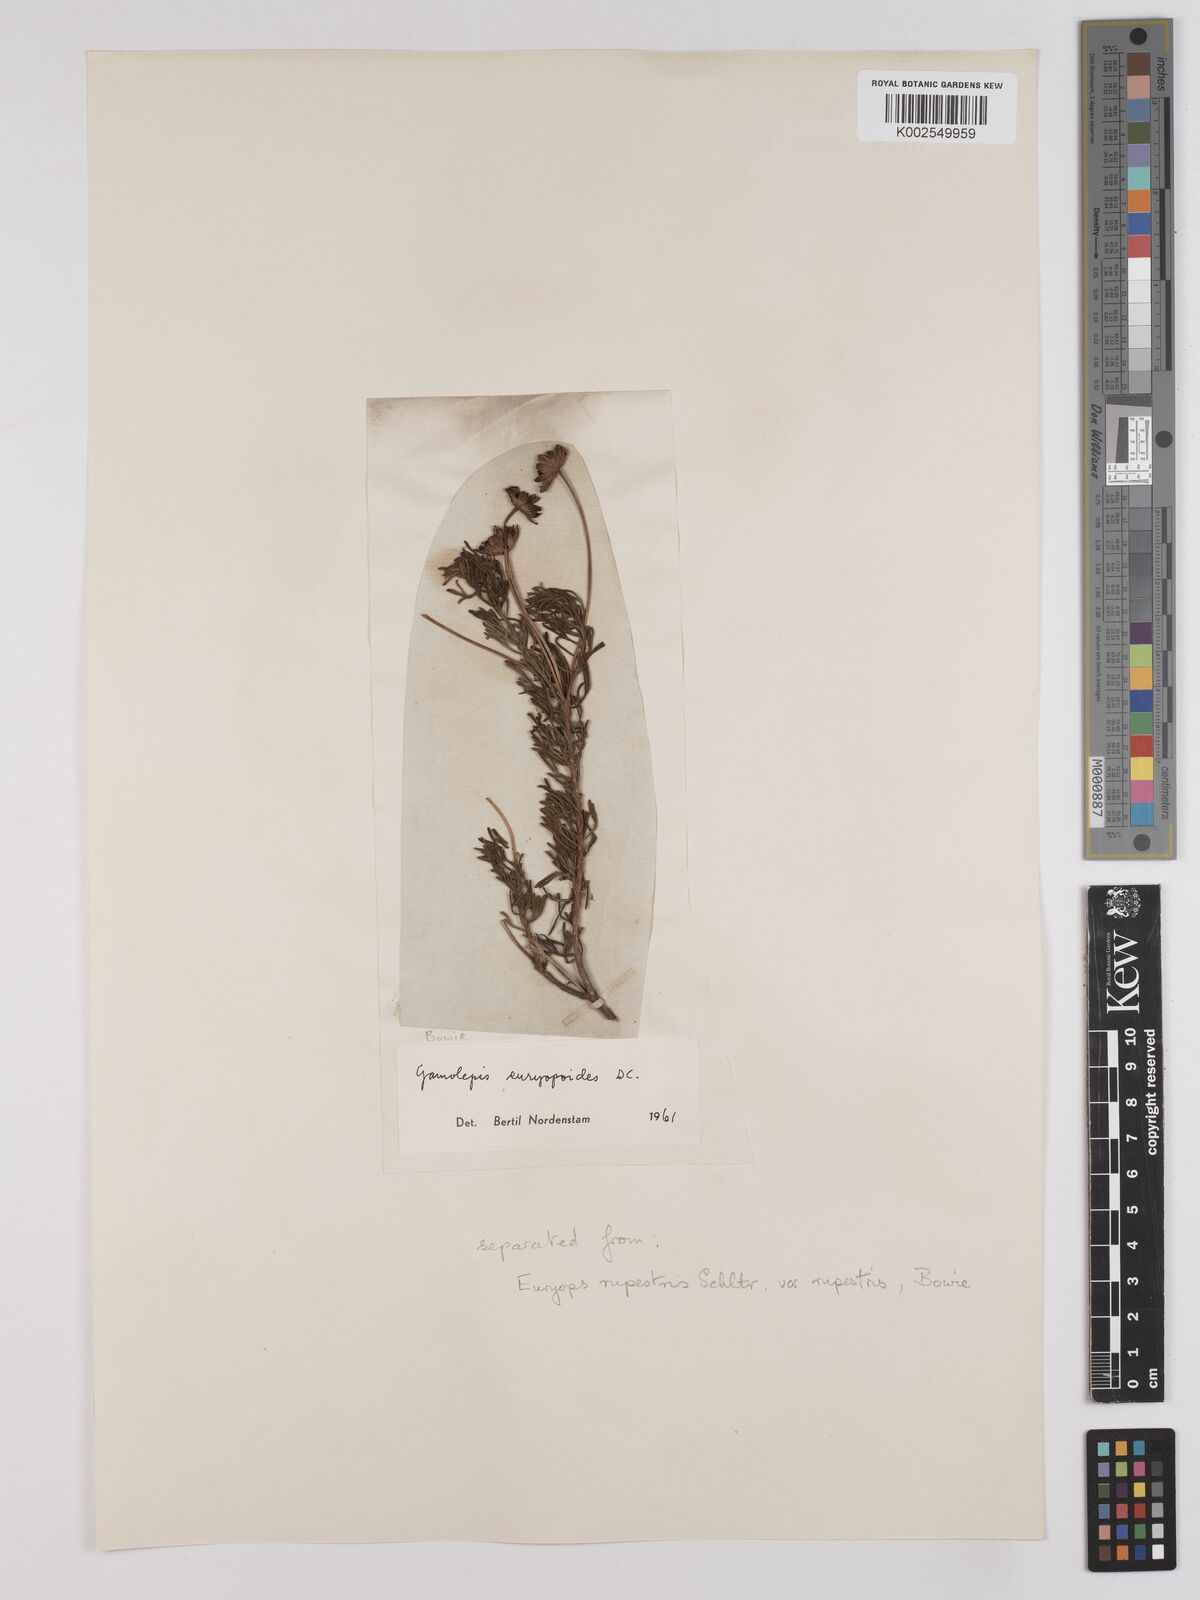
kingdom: Plantae
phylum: Tracheophyta
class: Magnoliopsida
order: Asterales
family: Asteraceae
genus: Euryops
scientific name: Euryops euryopoides
